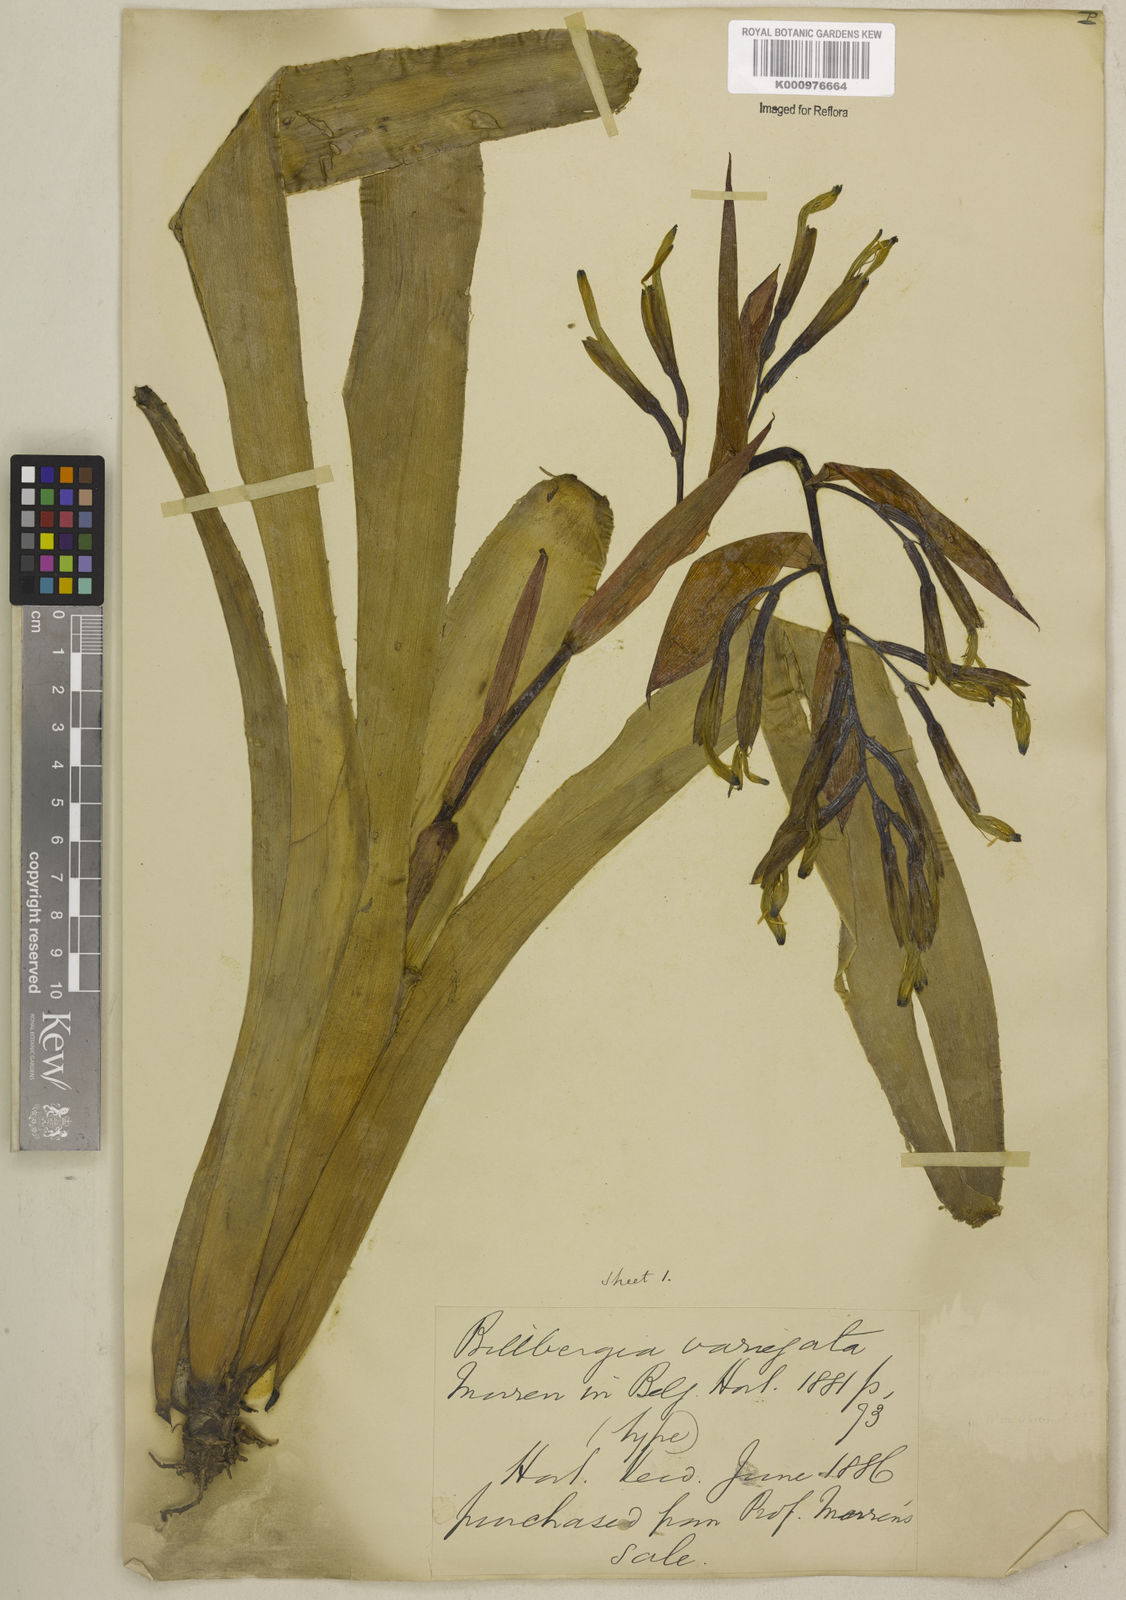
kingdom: Plantae
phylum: Tracheophyta
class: Liliopsida
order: Poales
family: Bromeliaceae
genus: Billbergia
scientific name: Billbergia amoena
